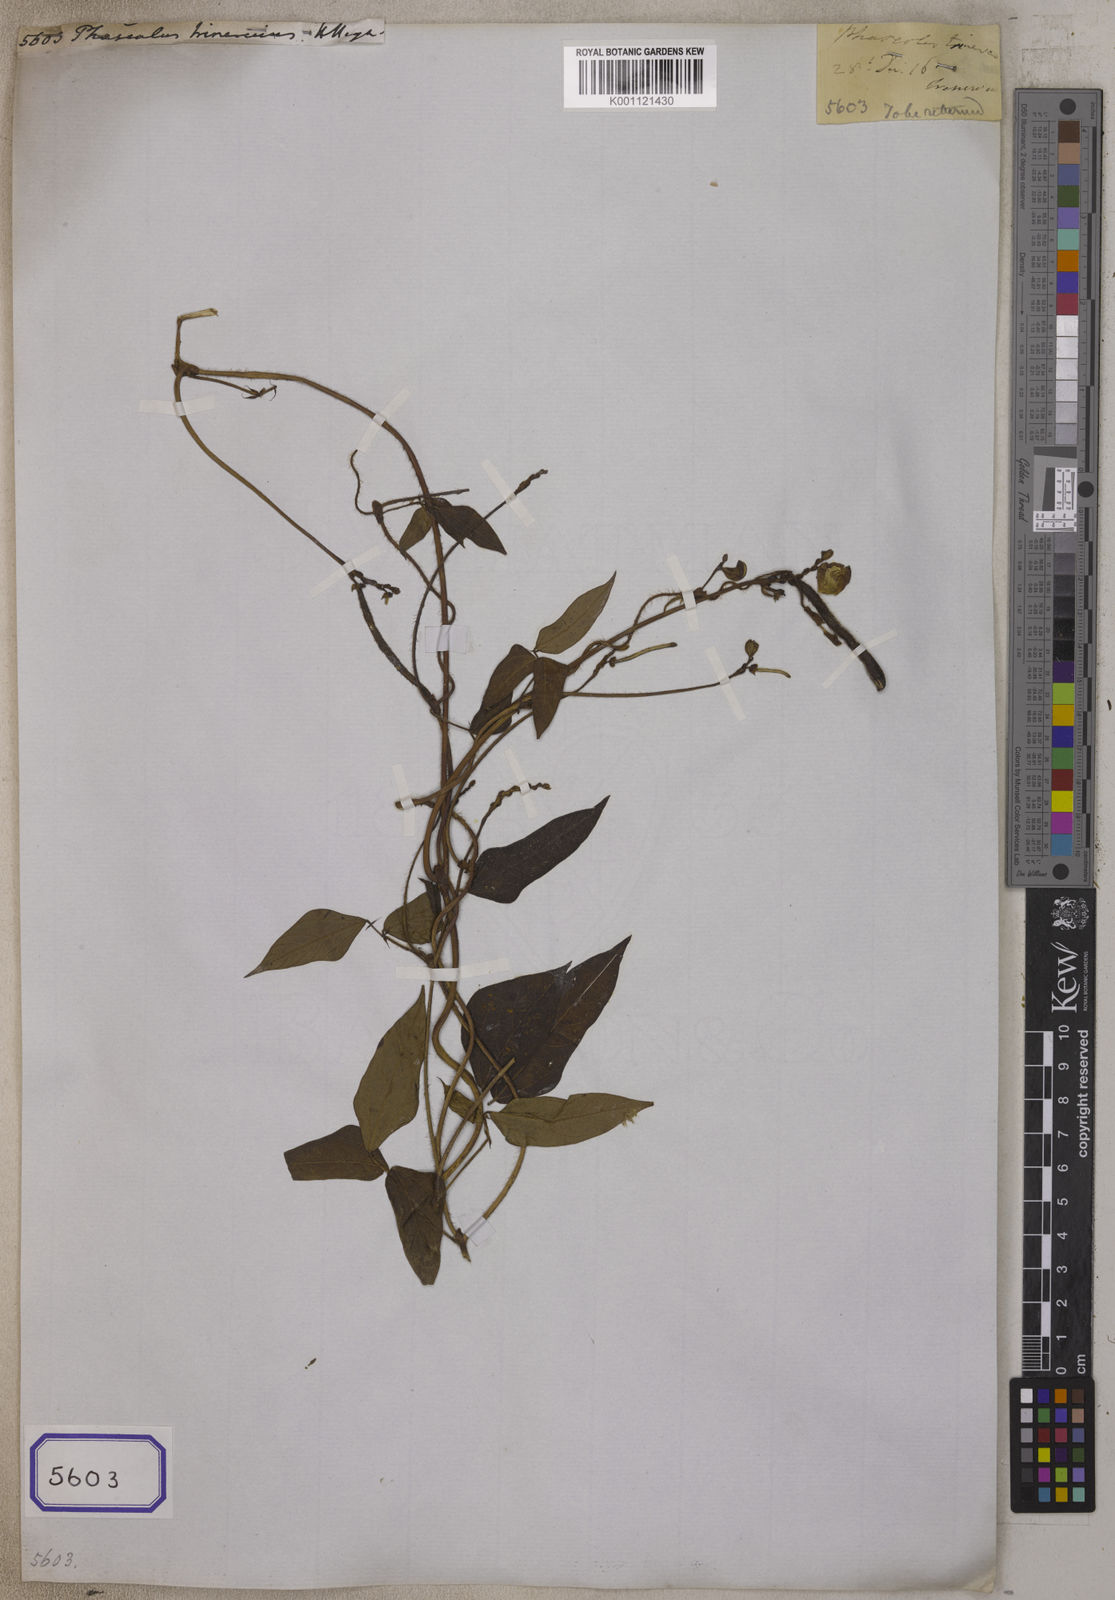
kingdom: Plantae
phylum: Tracheophyta
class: Magnoliopsida
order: Fabales
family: Fabaceae
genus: Phaseolus
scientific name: Phaseolus
